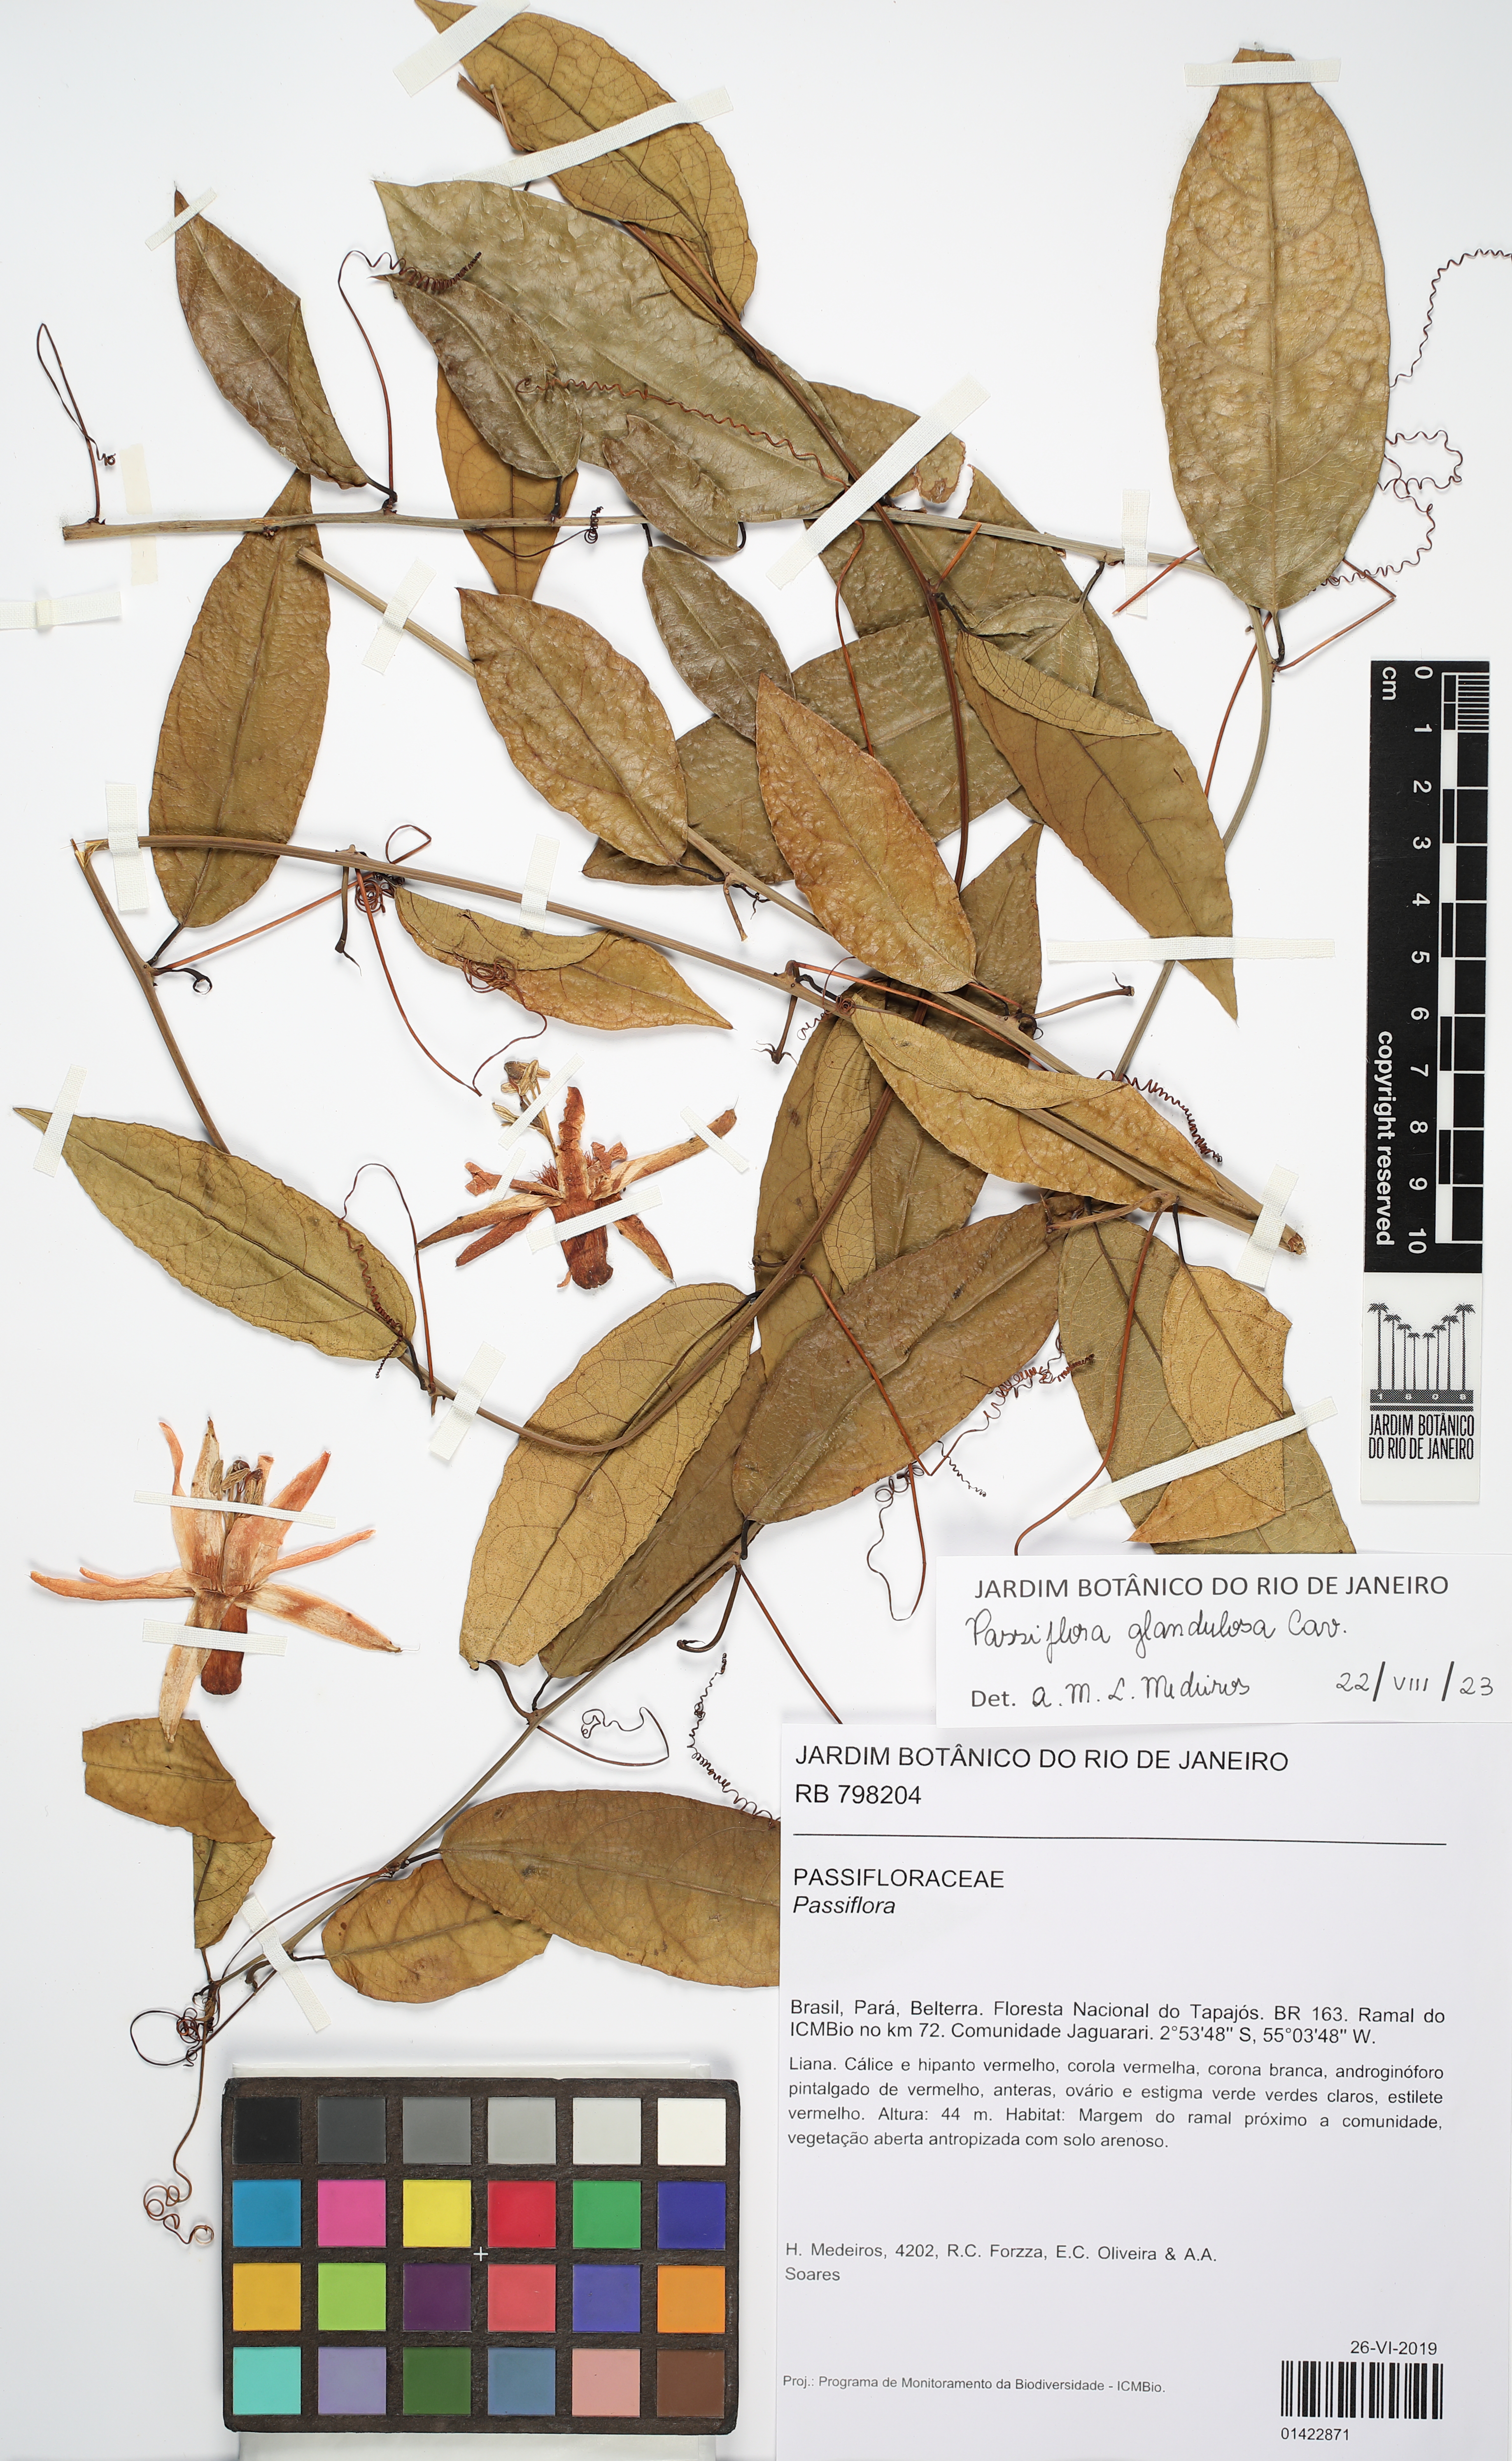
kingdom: Plantae
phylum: Tracheophyta
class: Magnoliopsida
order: Malpighiales
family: Passifloraceae
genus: Passiflora
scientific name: Passiflora glandulosa
